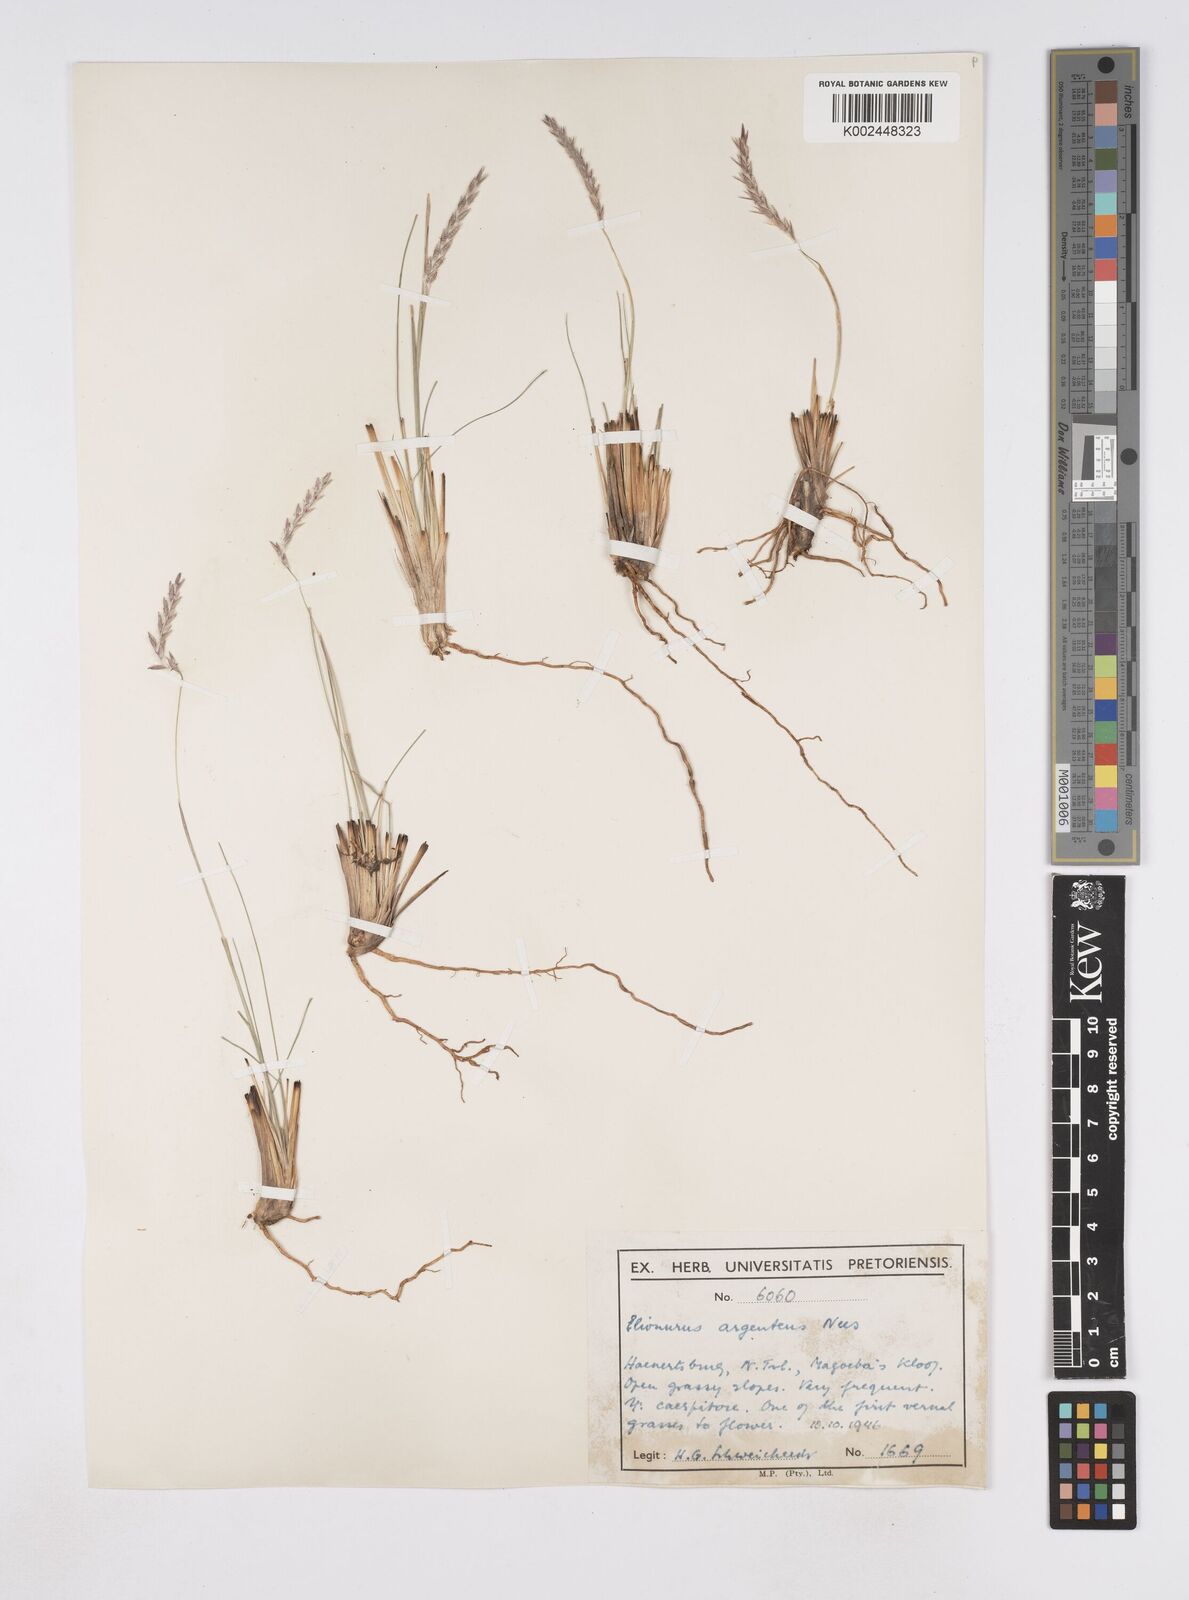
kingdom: Plantae
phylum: Tracheophyta
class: Liliopsida
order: Poales
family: Poaceae
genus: Elionurus
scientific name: Elionurus muticus
